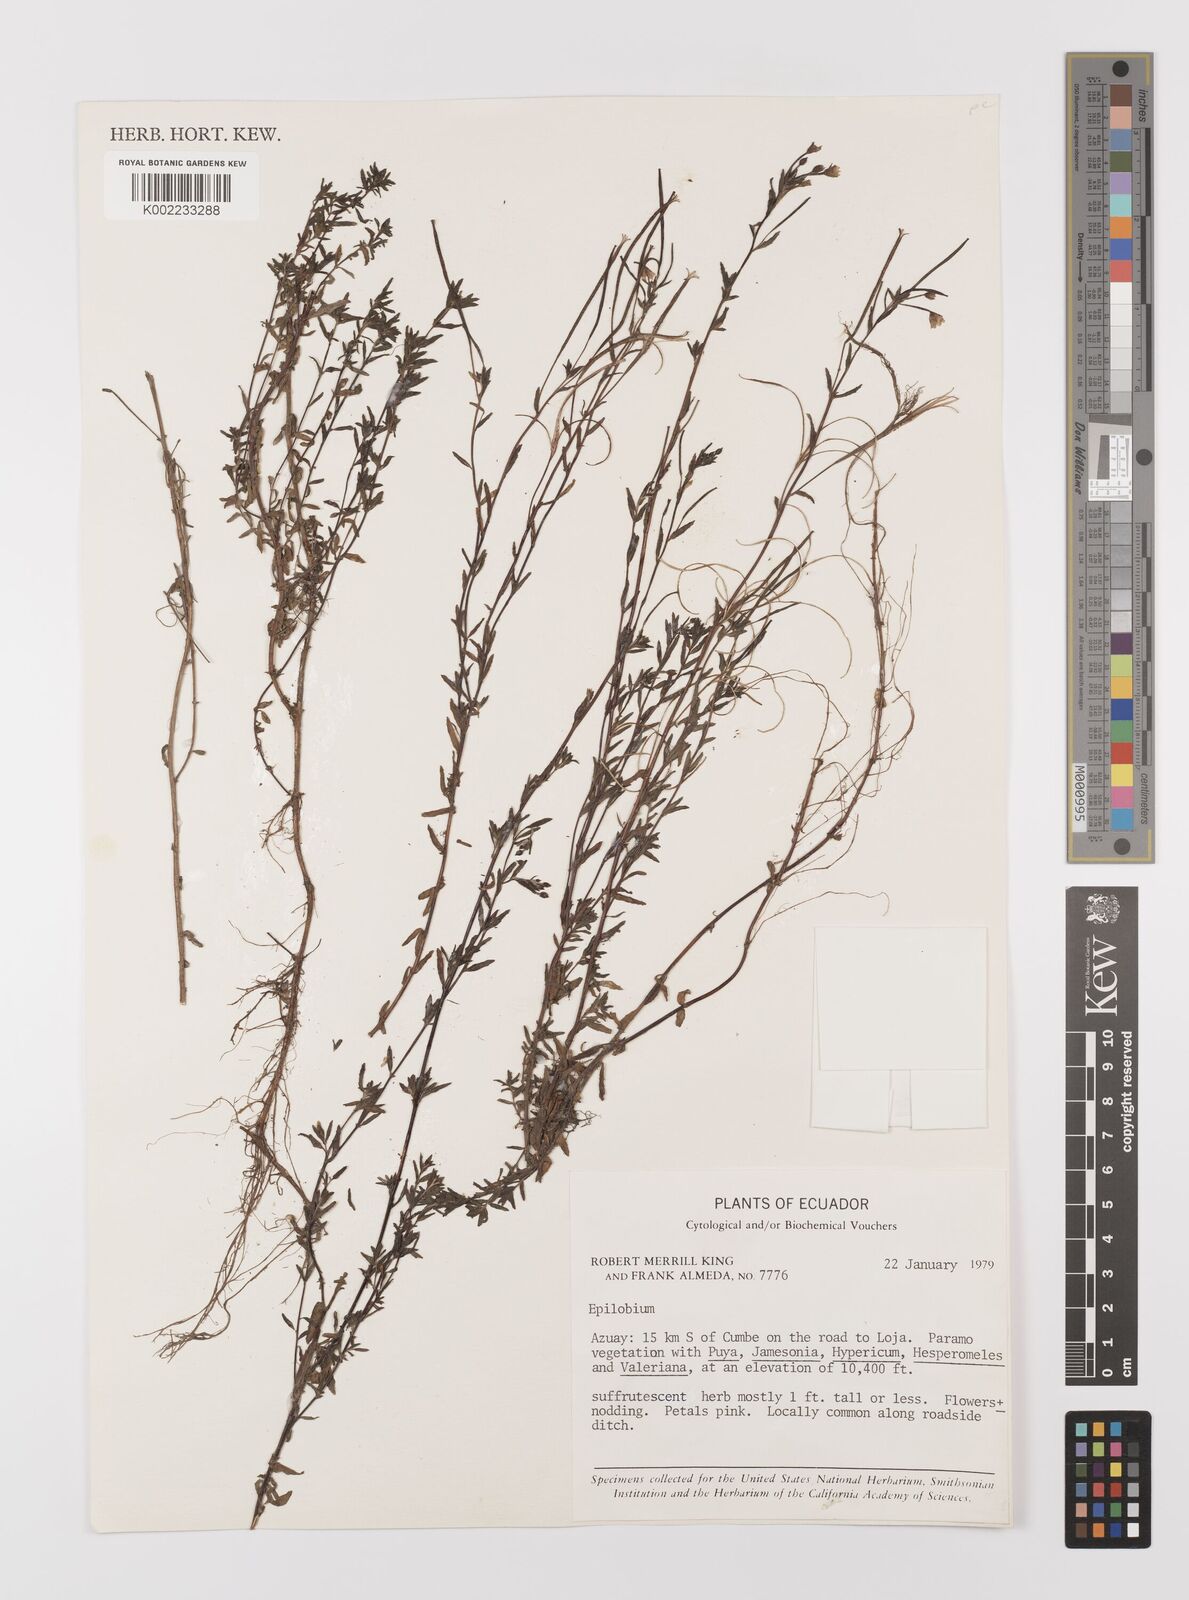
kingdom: Plantae
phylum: Tracheophyta
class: Magnoliopsida
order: Myrtales
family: Onagraceae
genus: Epilobium
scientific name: Epilobium
